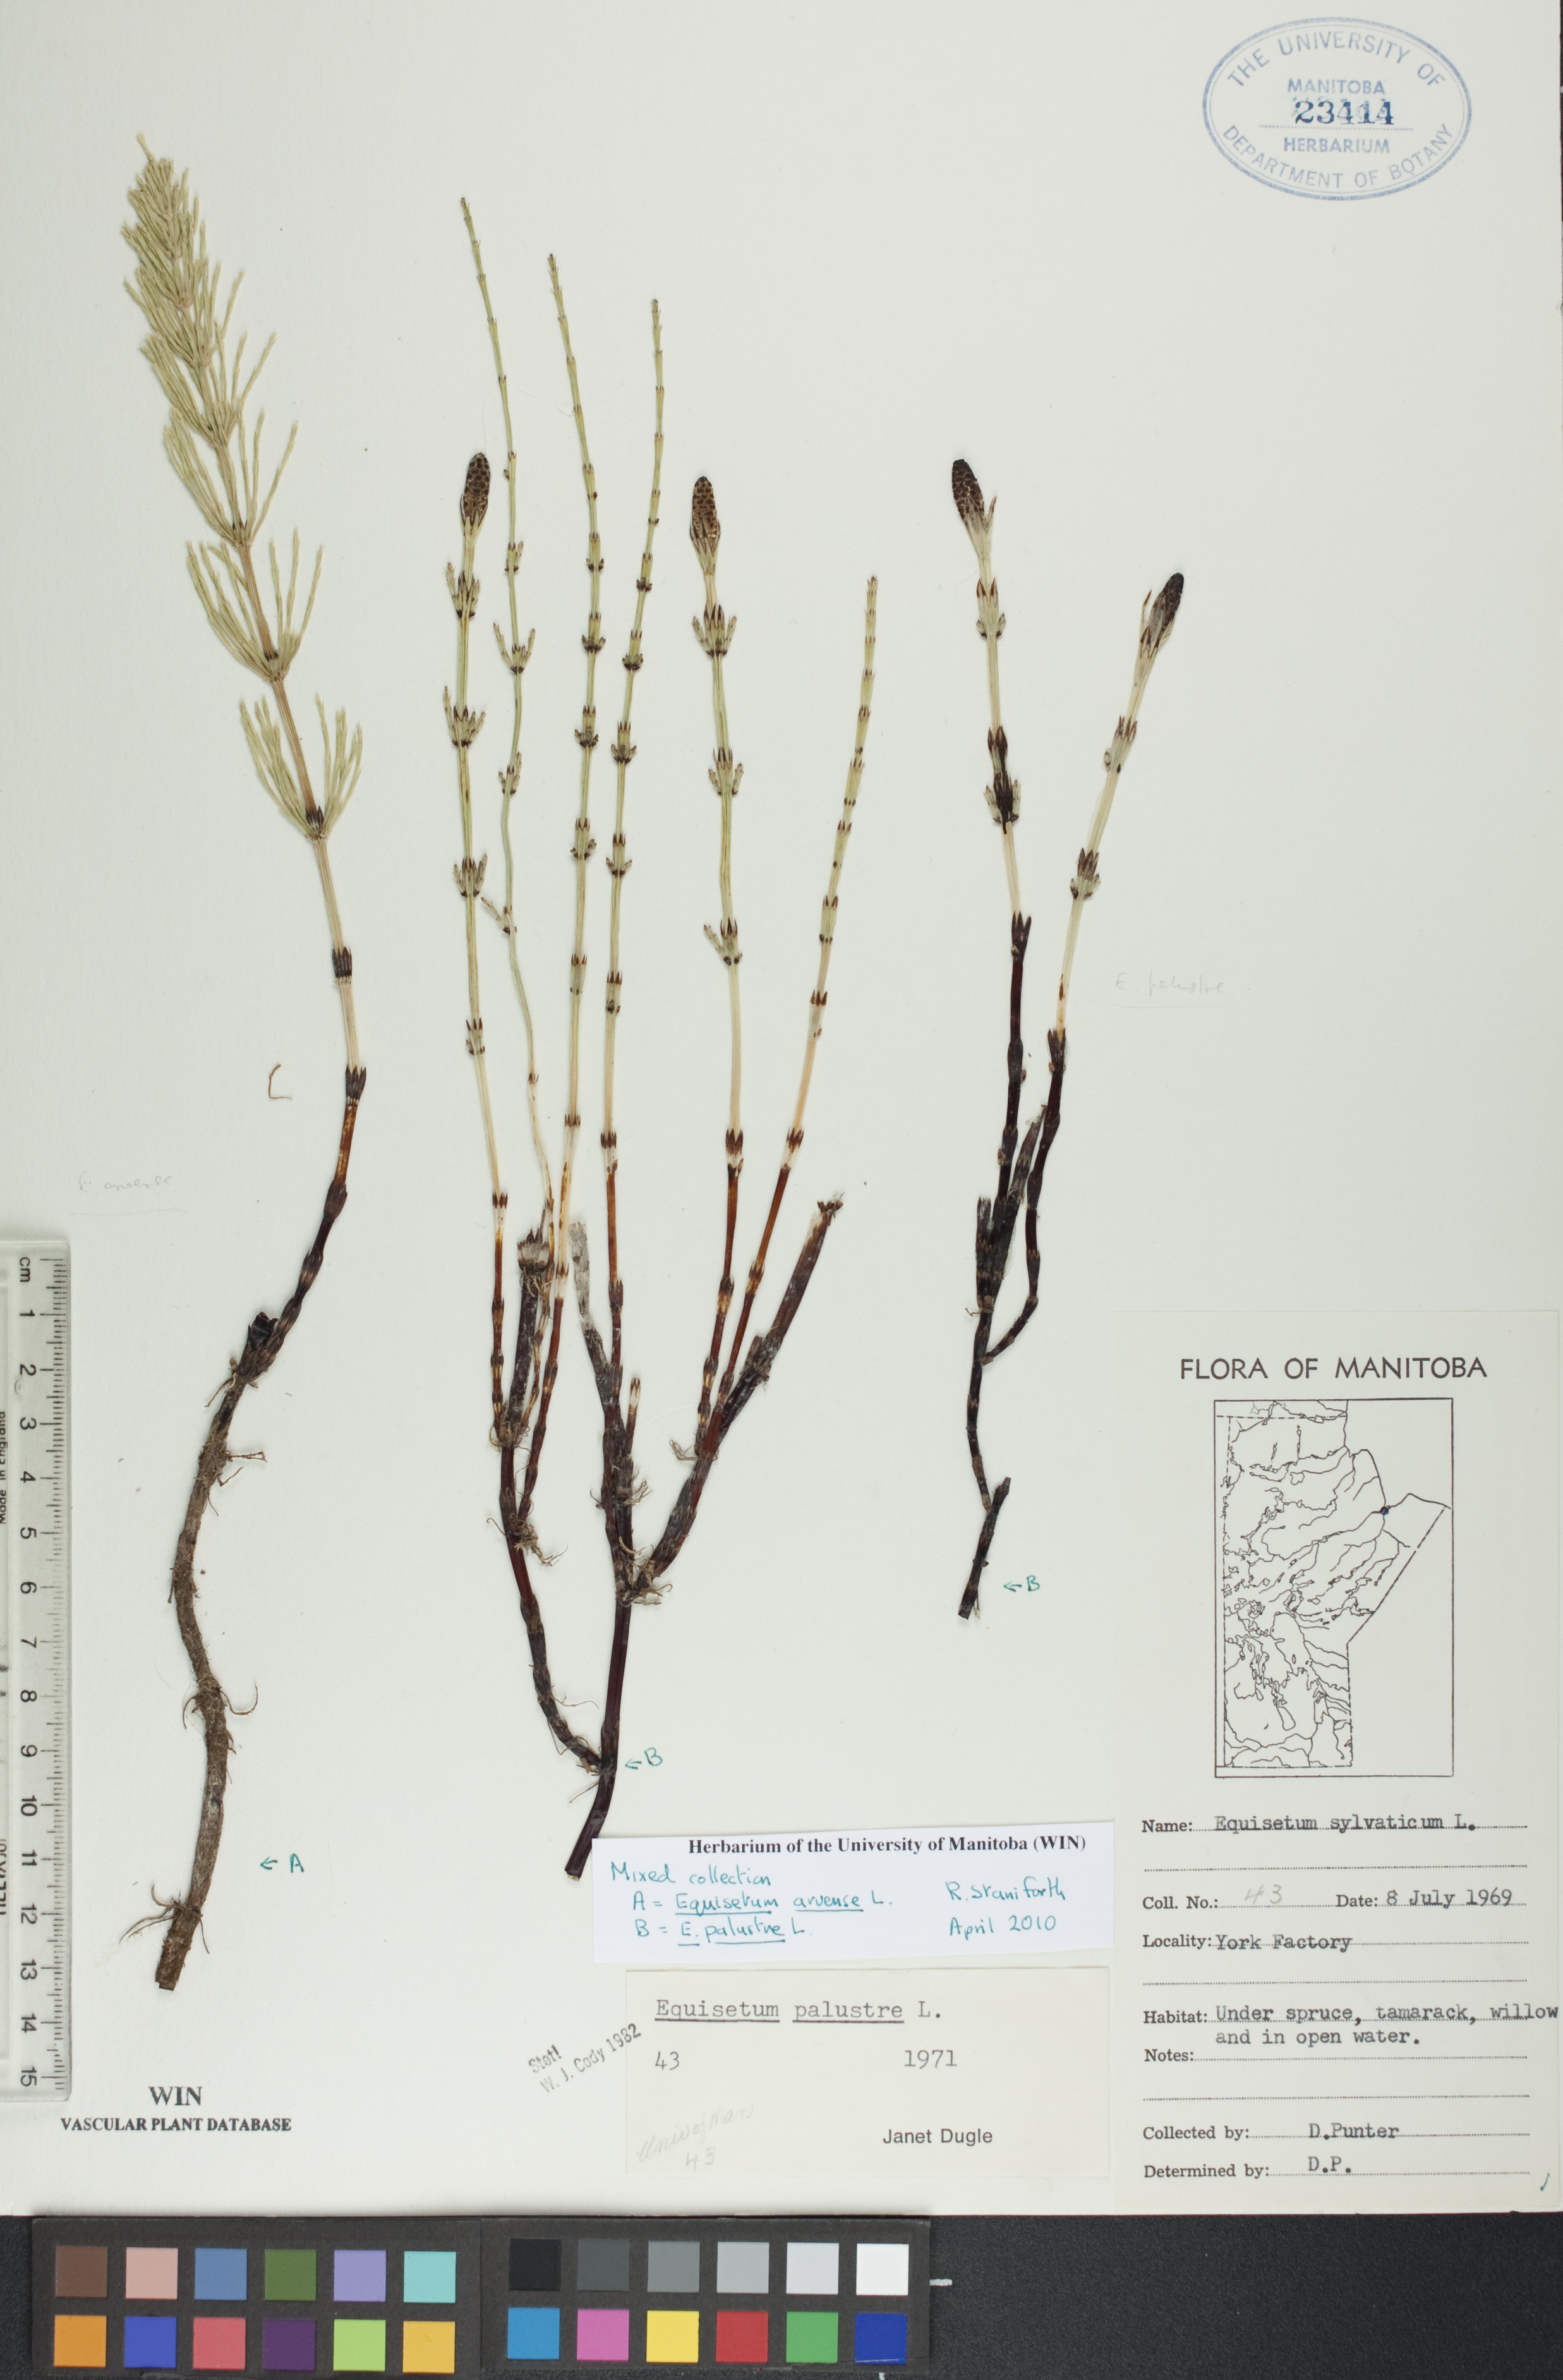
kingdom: Plantae
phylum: Tracheophyta
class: Polypodiopsida
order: Equisetales
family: Equisetaceae
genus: Equisetum
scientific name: Equisetum palustre
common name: Marsh horsetail
